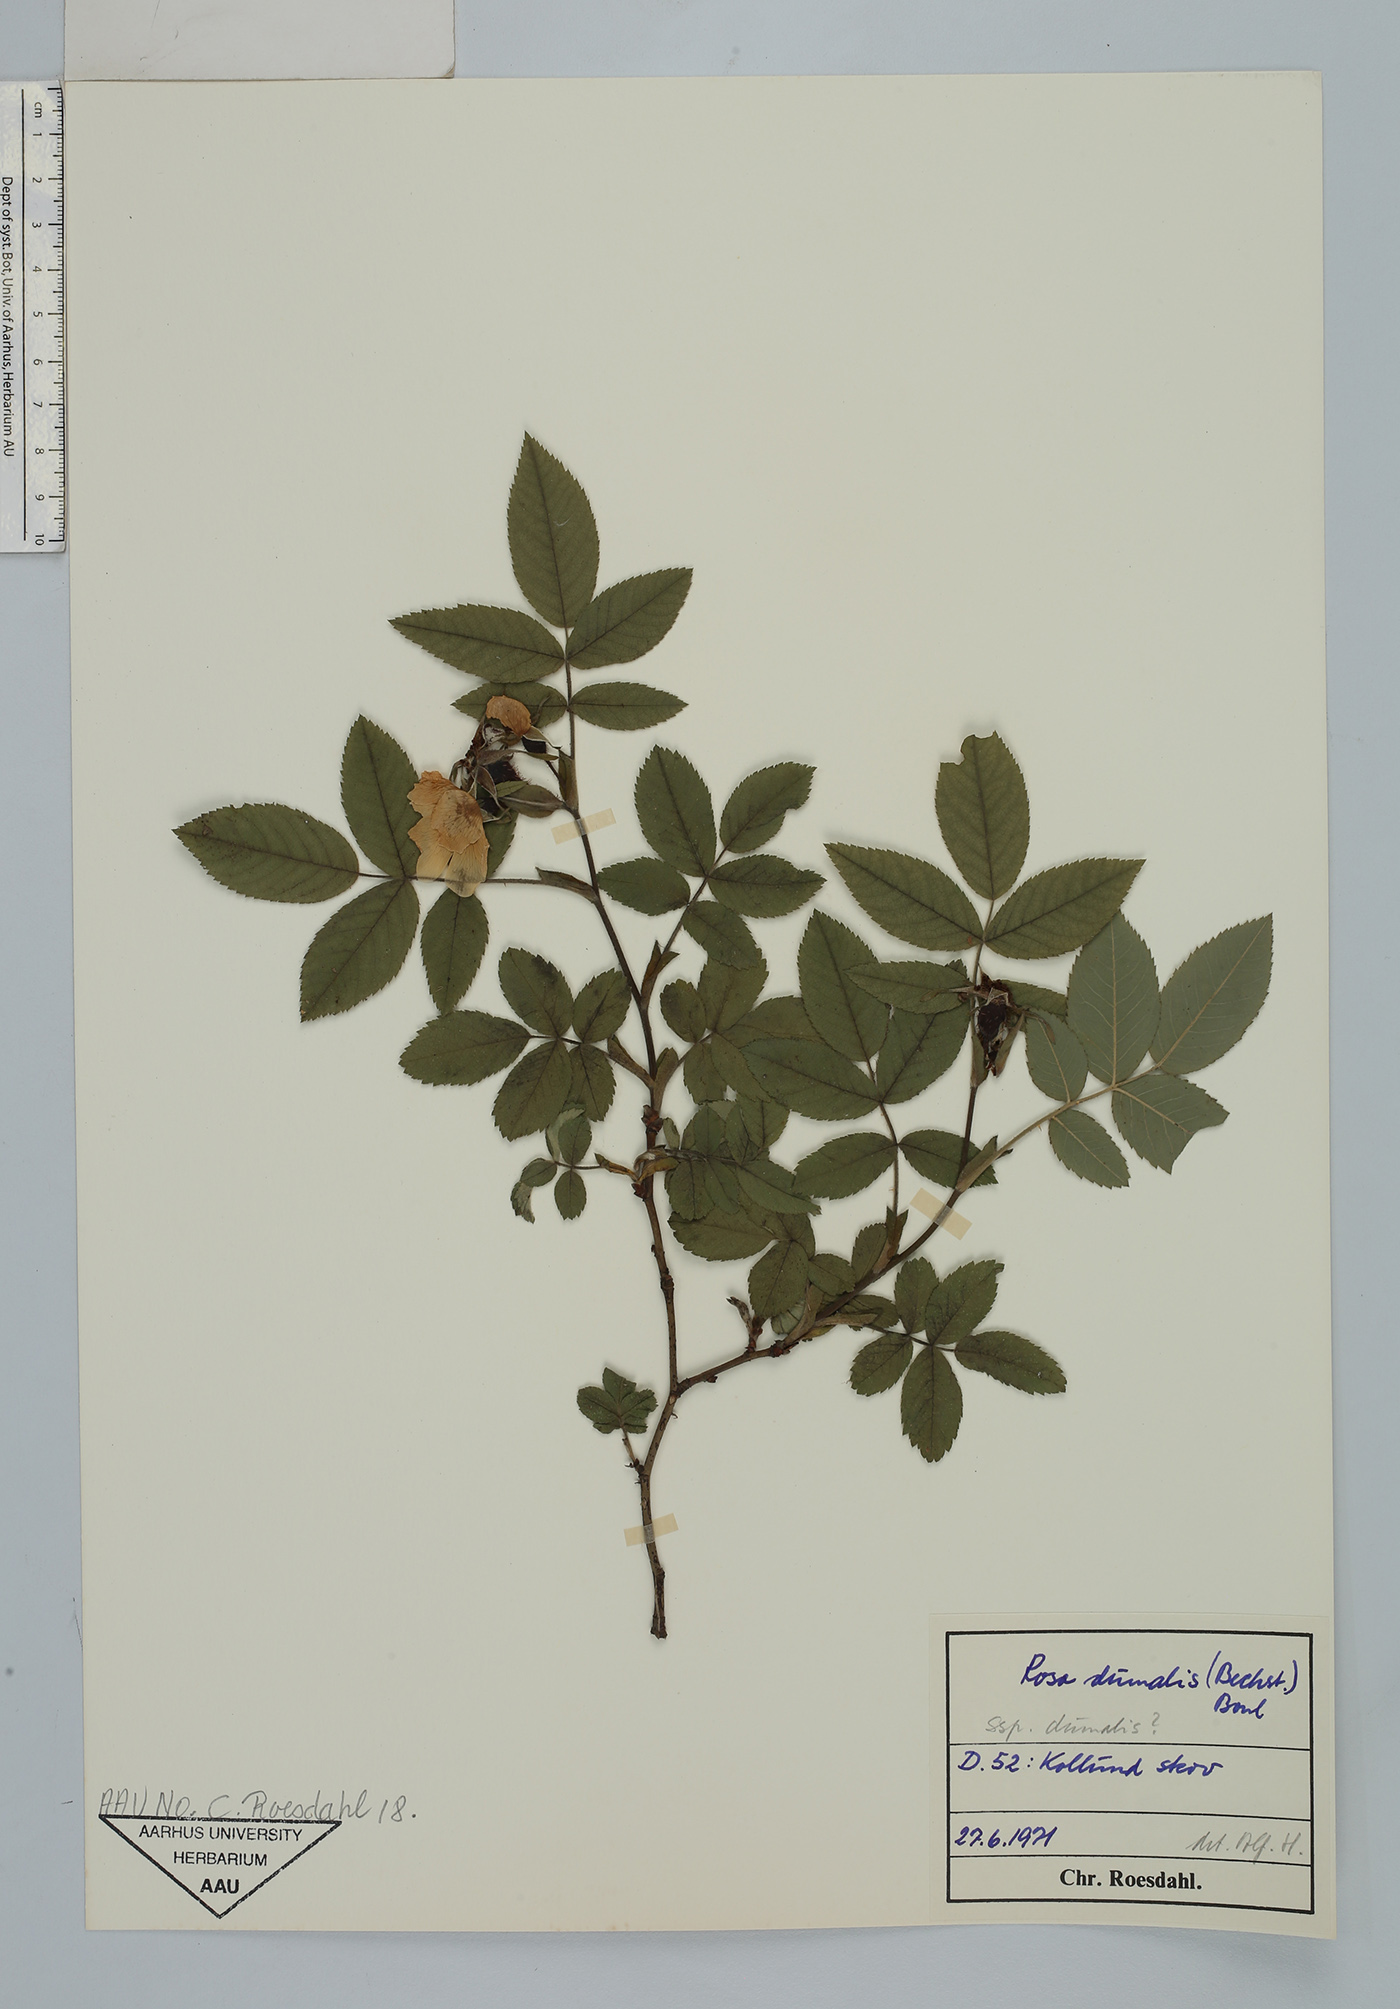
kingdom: Plantae
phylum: Tracheophyta
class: Magnoliopsida
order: Rosales
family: Rosaceae
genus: Rosa
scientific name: Rosa dumalis
